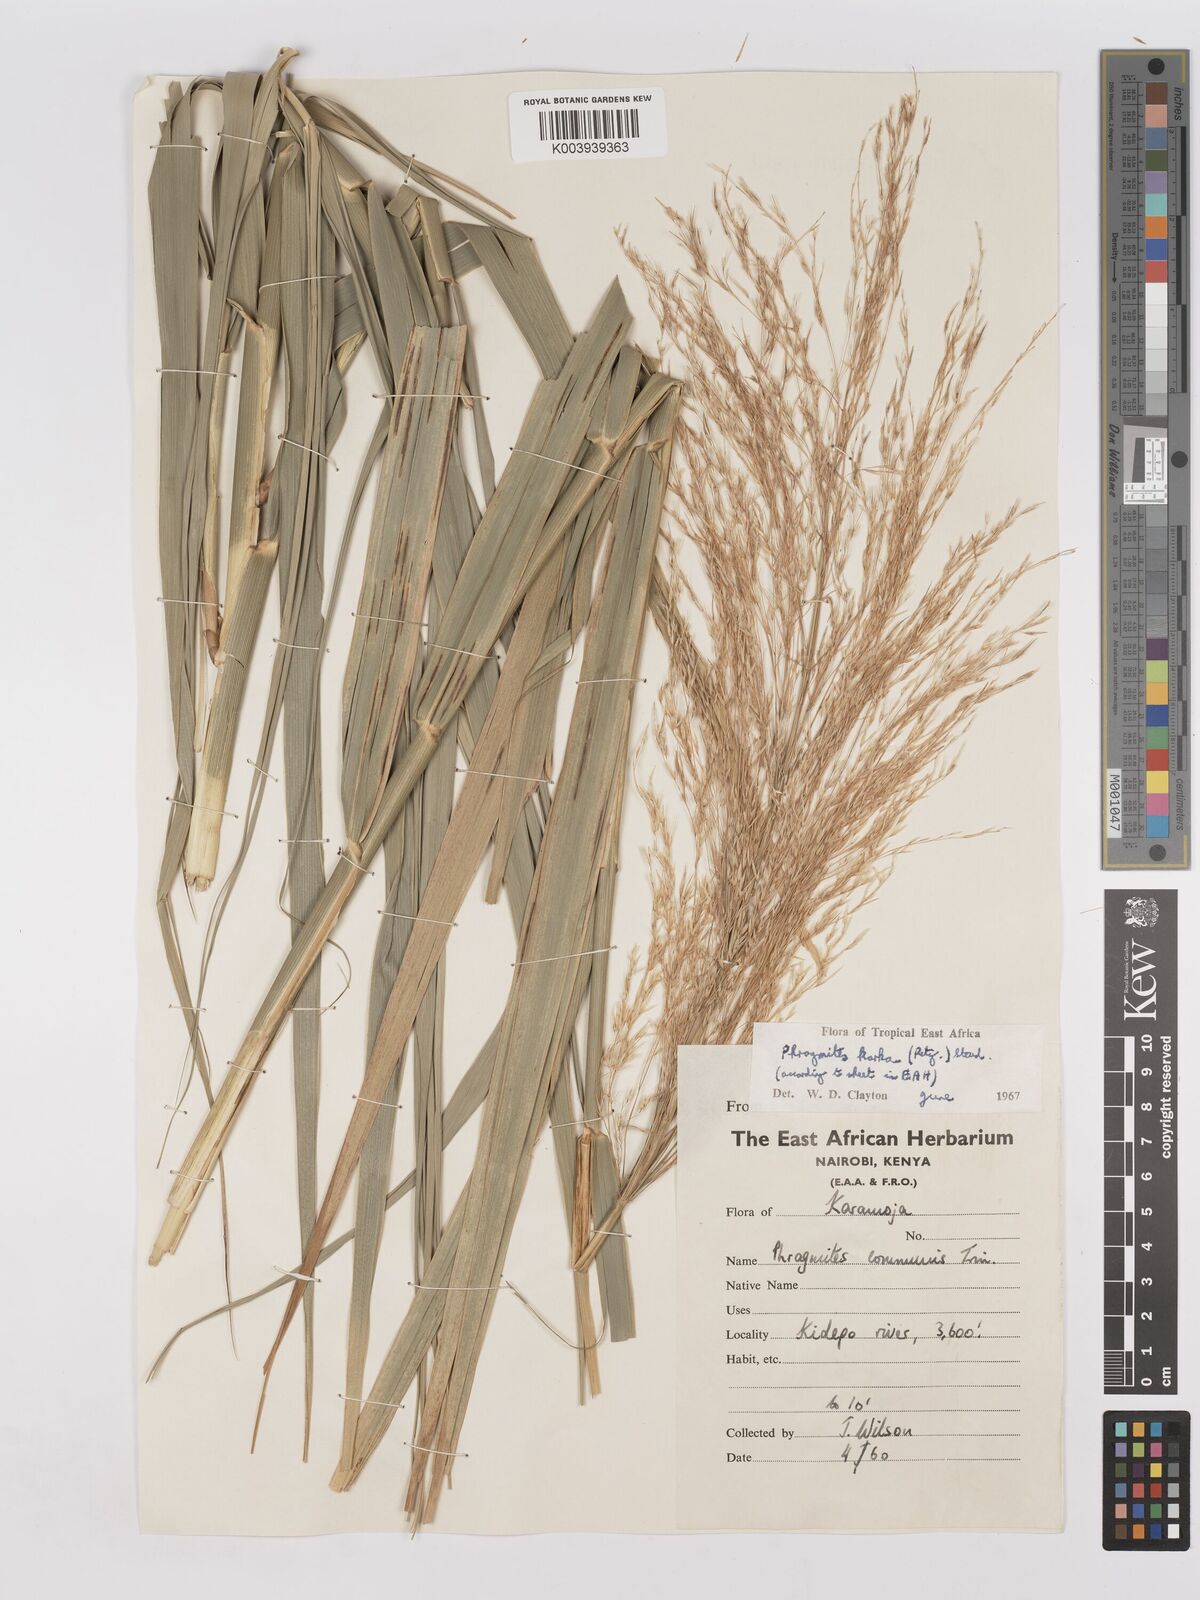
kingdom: Plantae
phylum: Tracheophyta
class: Liliopsida
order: Poales
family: Poaceae
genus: Phragmites
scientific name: Phragmites karka
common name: Tropical reed
